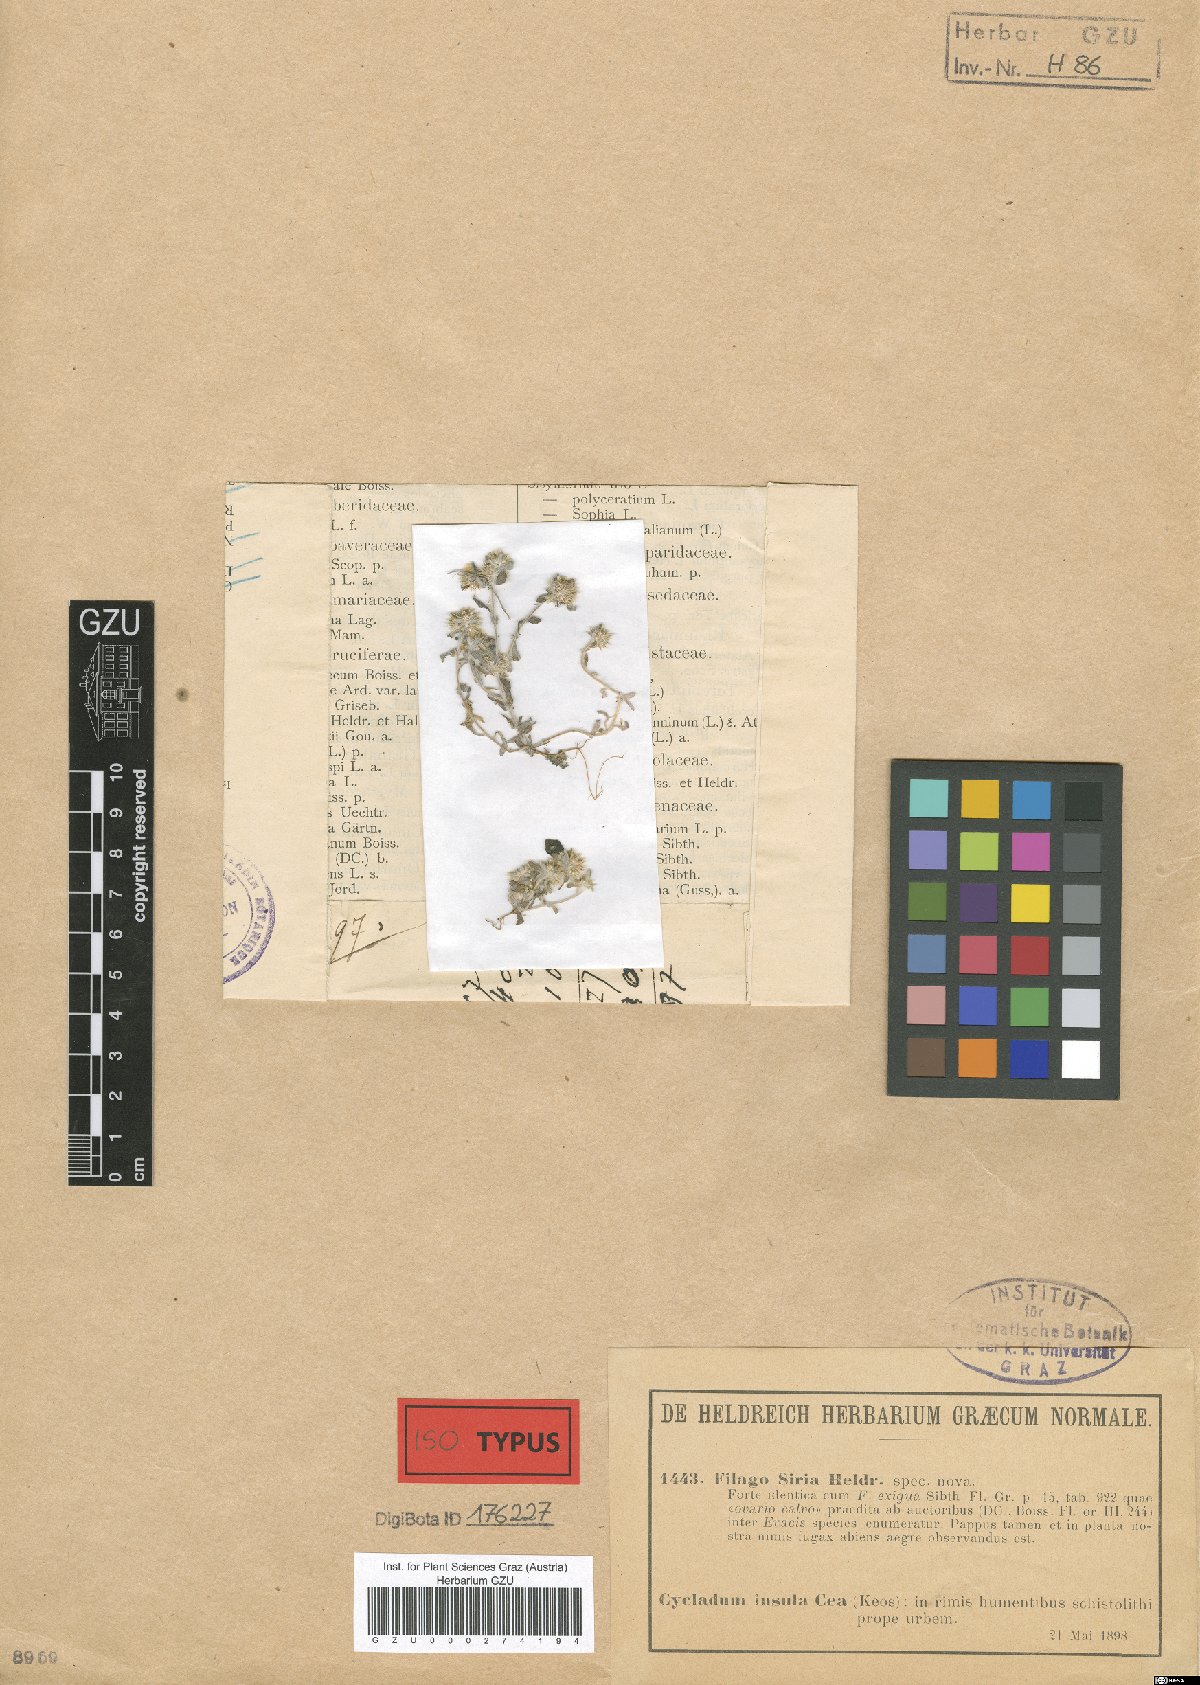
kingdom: Plantae
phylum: Tracheophyta
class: Magnoliopsida
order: Asterales
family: Asteraceae
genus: Filago
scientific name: Filago
